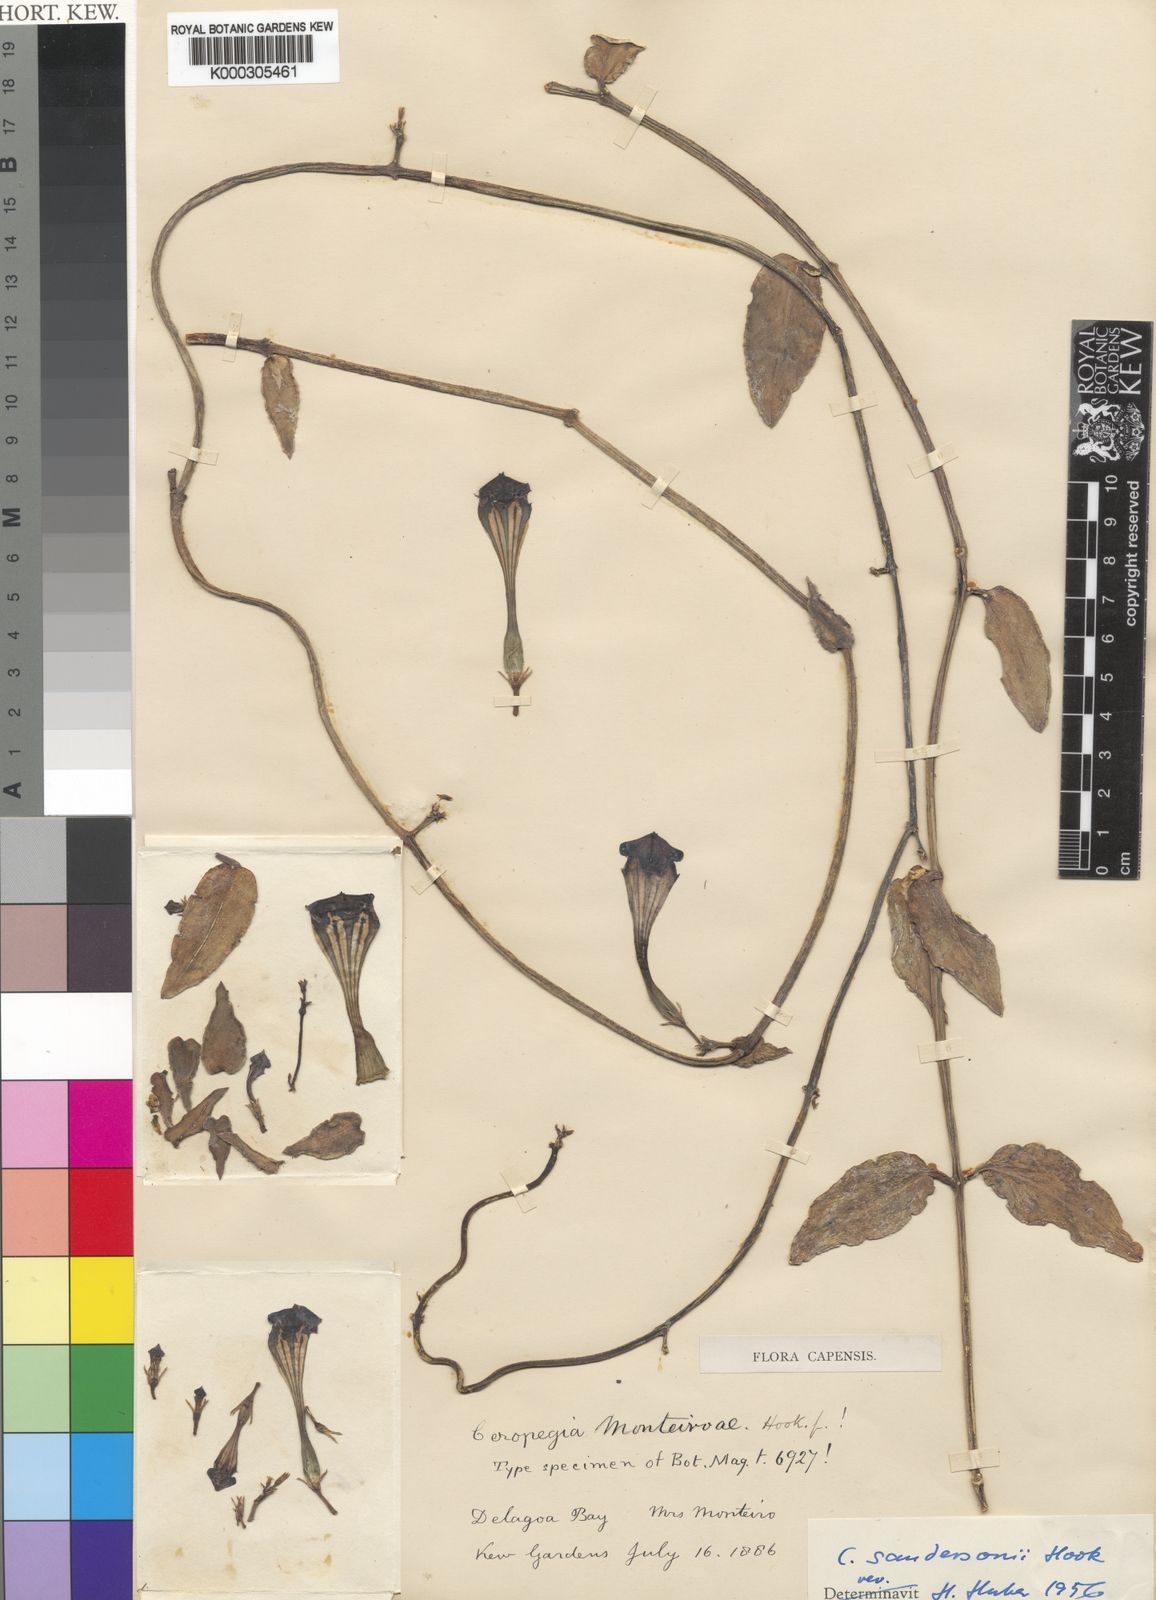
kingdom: Plantae
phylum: Tracheophyta
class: Magnoliopsida
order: Gentianales
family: Apocynaceae
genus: Ceropegia
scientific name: Ceropegia sandersonii
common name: Fountain-flower
